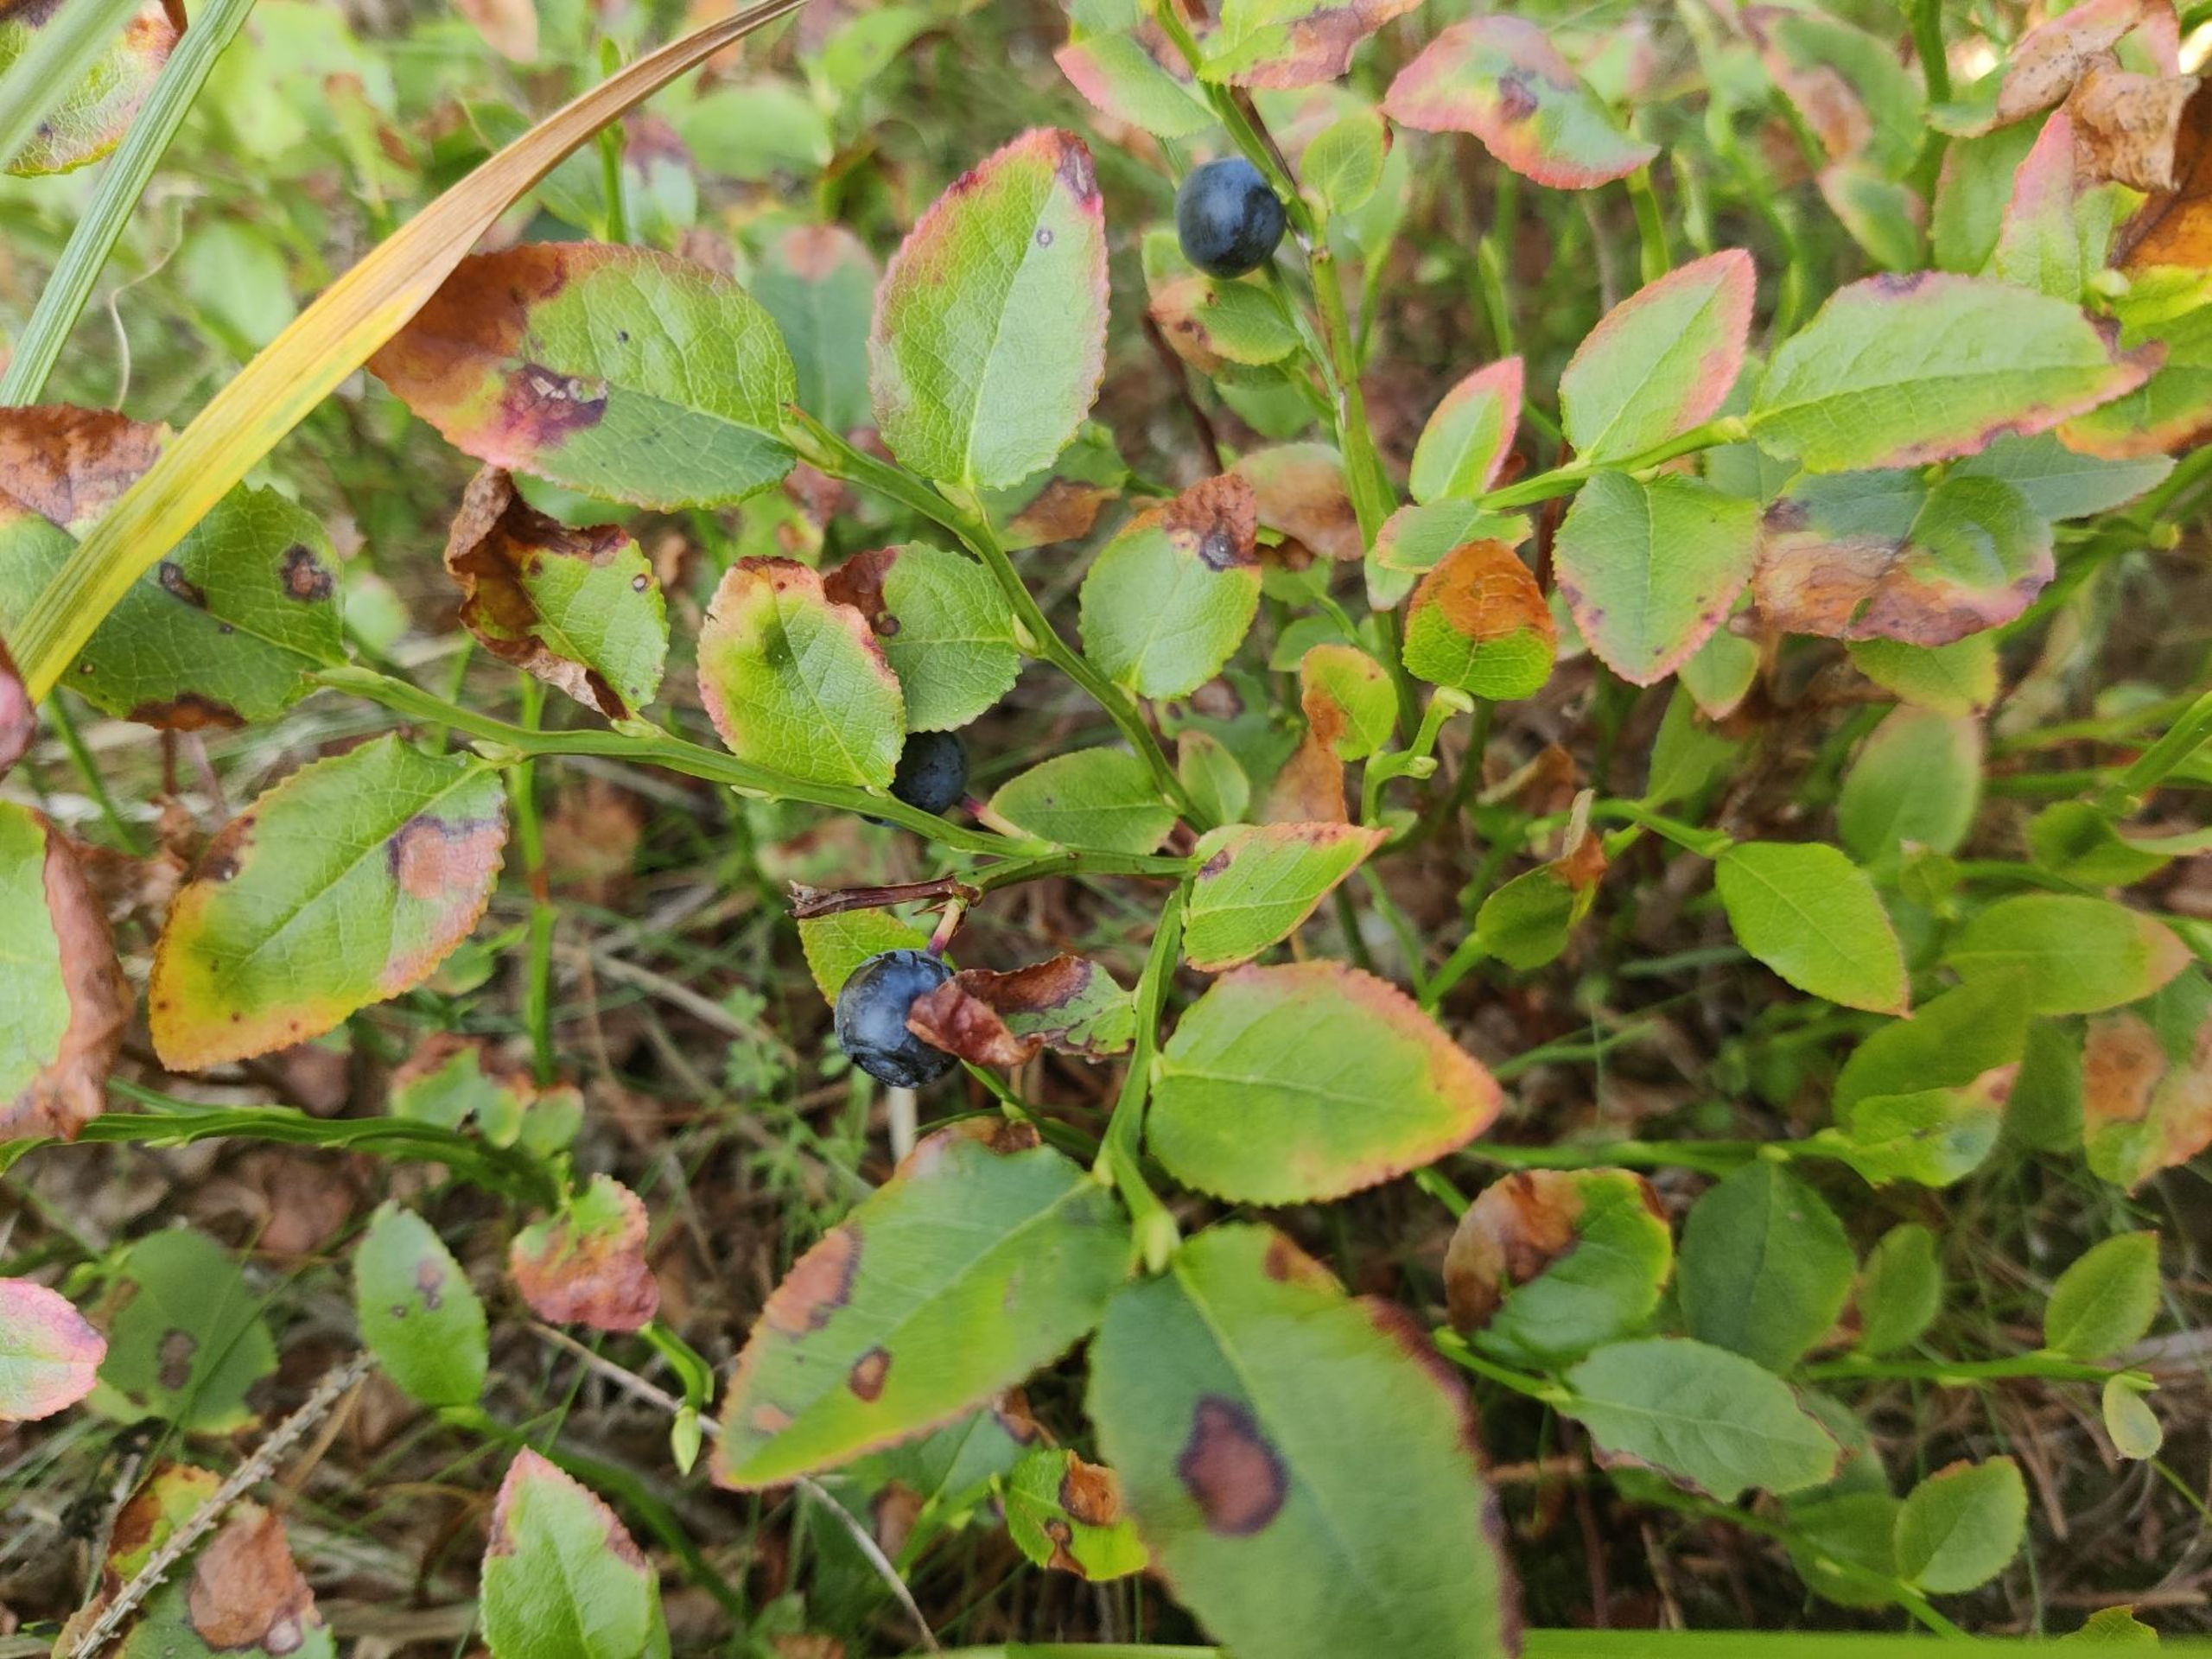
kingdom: Plantae
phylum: Tracheophyta
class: Magnoliopsida
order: Ericales
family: Ericaceae
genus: Vaccinium
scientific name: Vaccinium myrtillus
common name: Blåbær
